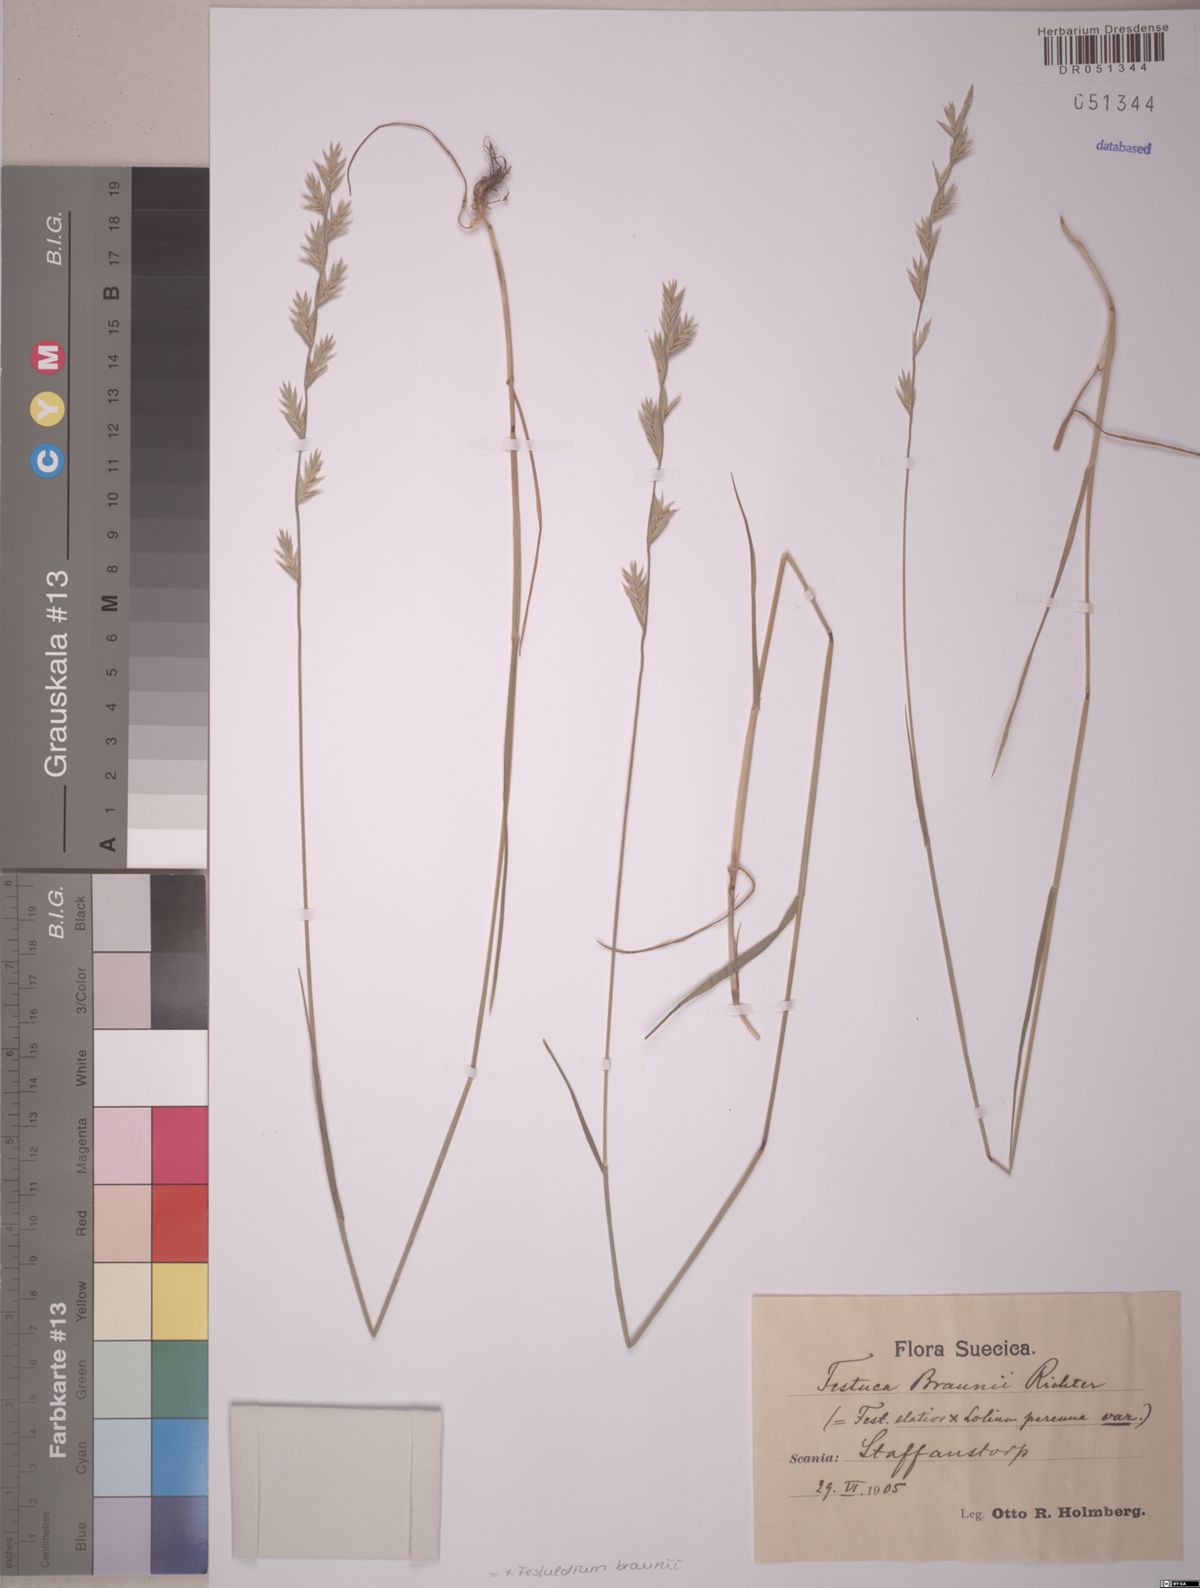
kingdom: Plantae
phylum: Tracheophyta
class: Liliopsida
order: Poales
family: Poaceae
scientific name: Poaceae
